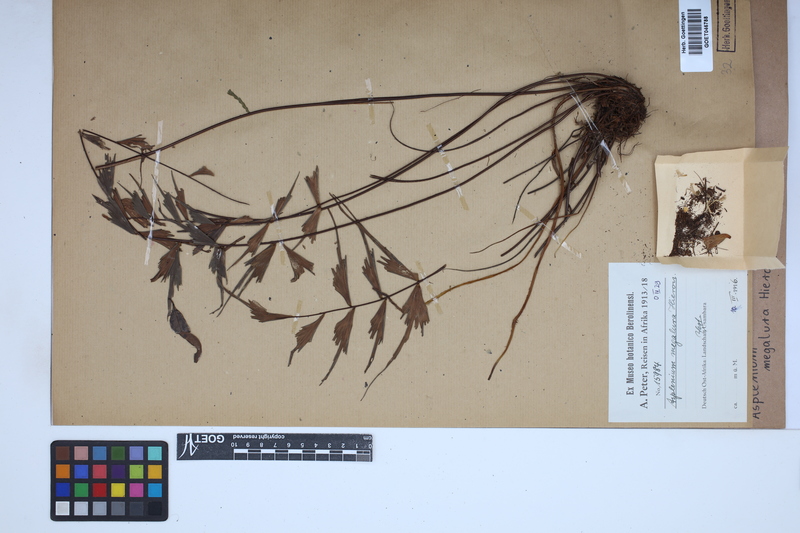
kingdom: Plantae
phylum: Tracheophyta
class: Polypodiopsida
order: Polypodiales
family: Aspleniaceae
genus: Asplenium
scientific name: Asplenium megalura
